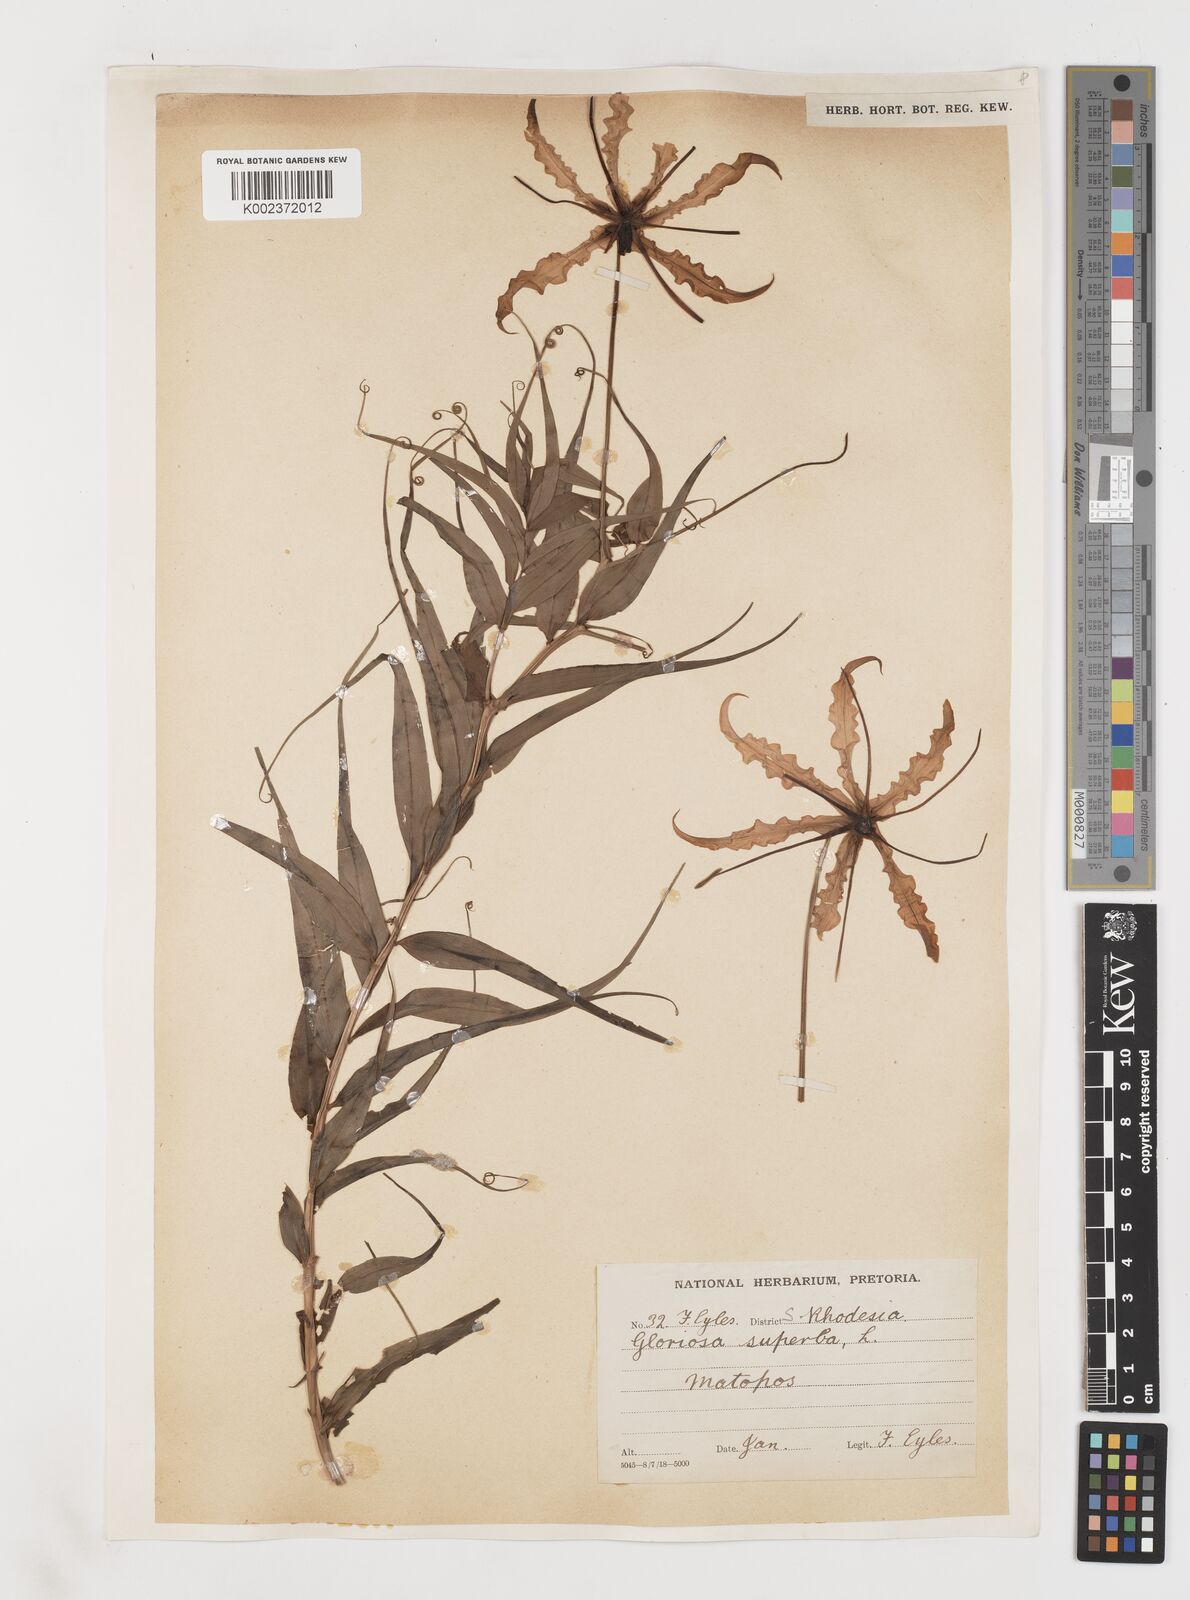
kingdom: Plantae
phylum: Tracheophyta
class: Liliopsida
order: Liliales
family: Colchicaceae
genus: Gloriosa
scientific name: Gloriosa superba
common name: Flame lily
